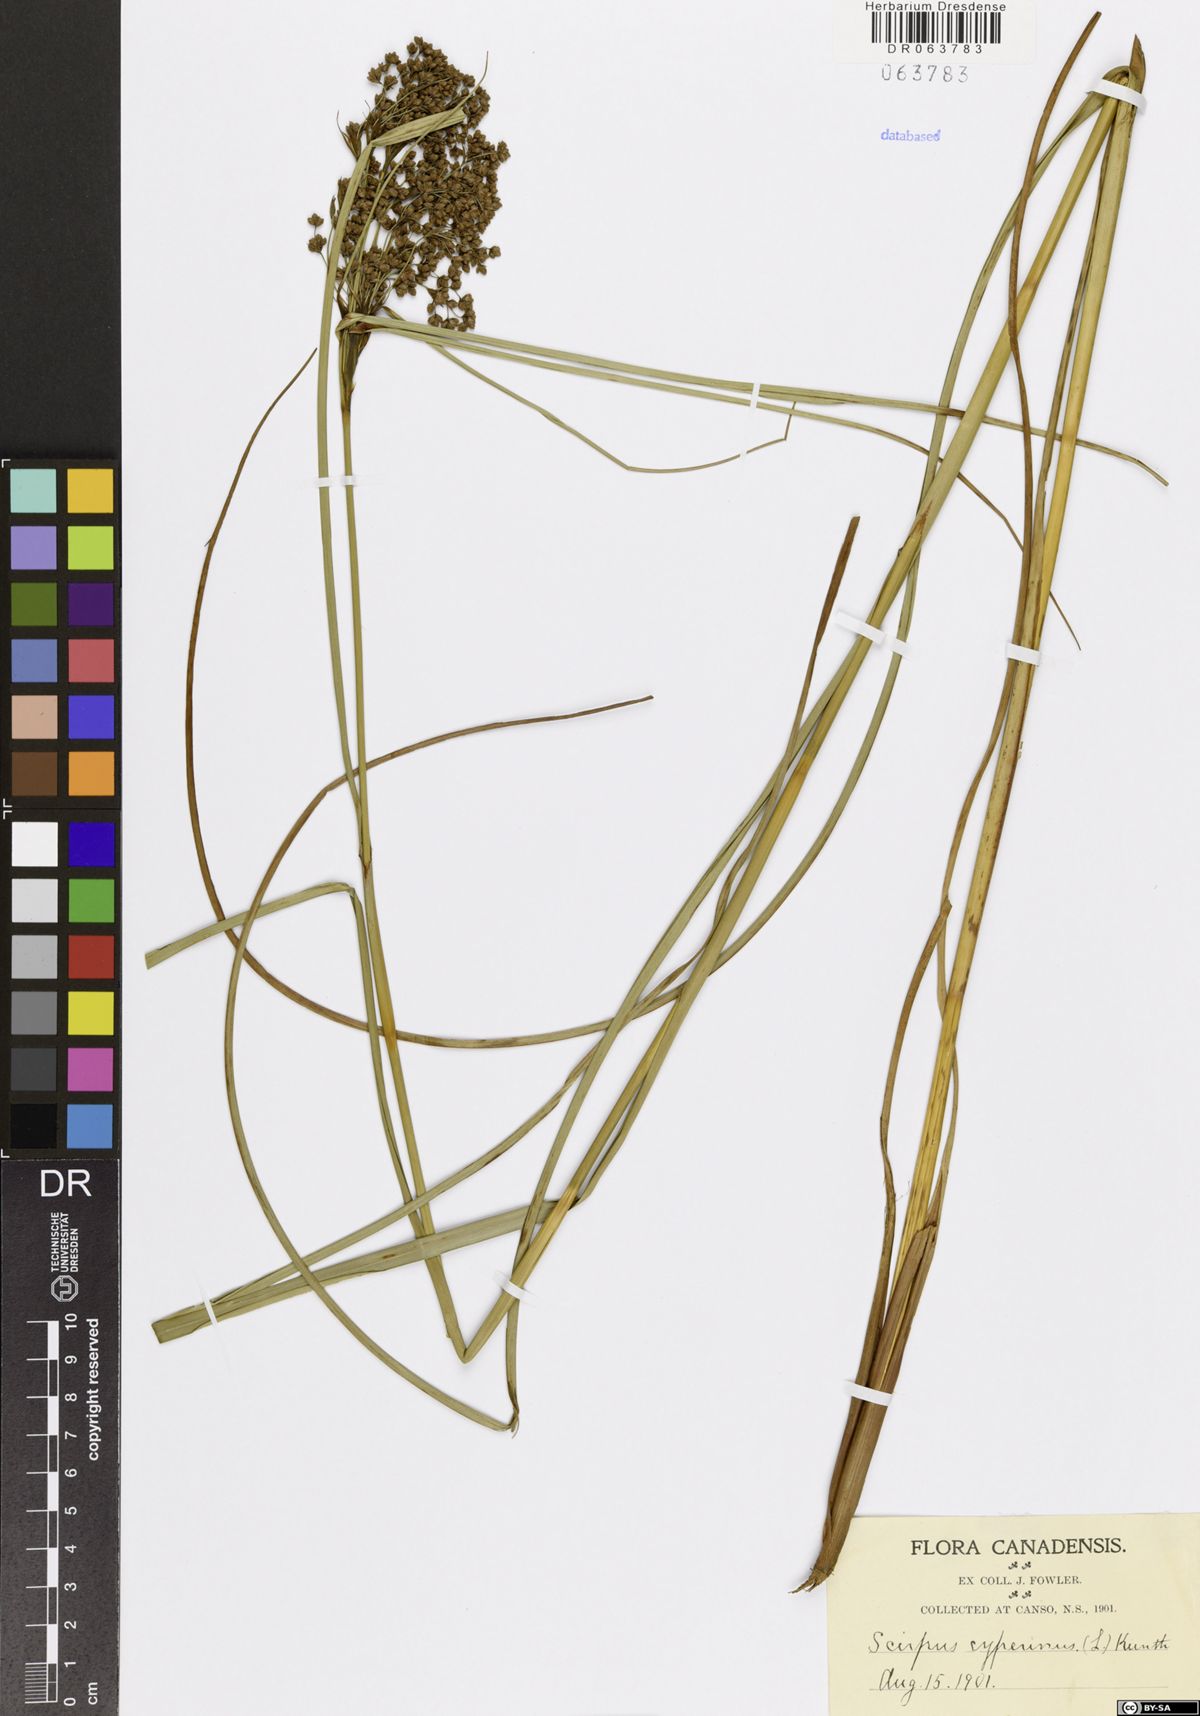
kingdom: Plantae
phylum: Tracheophyta
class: Liliopsida
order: Poales
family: Cyperaceae
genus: Scirpus
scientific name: Scirpus cyperinus
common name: Black-sheathed bulrush
